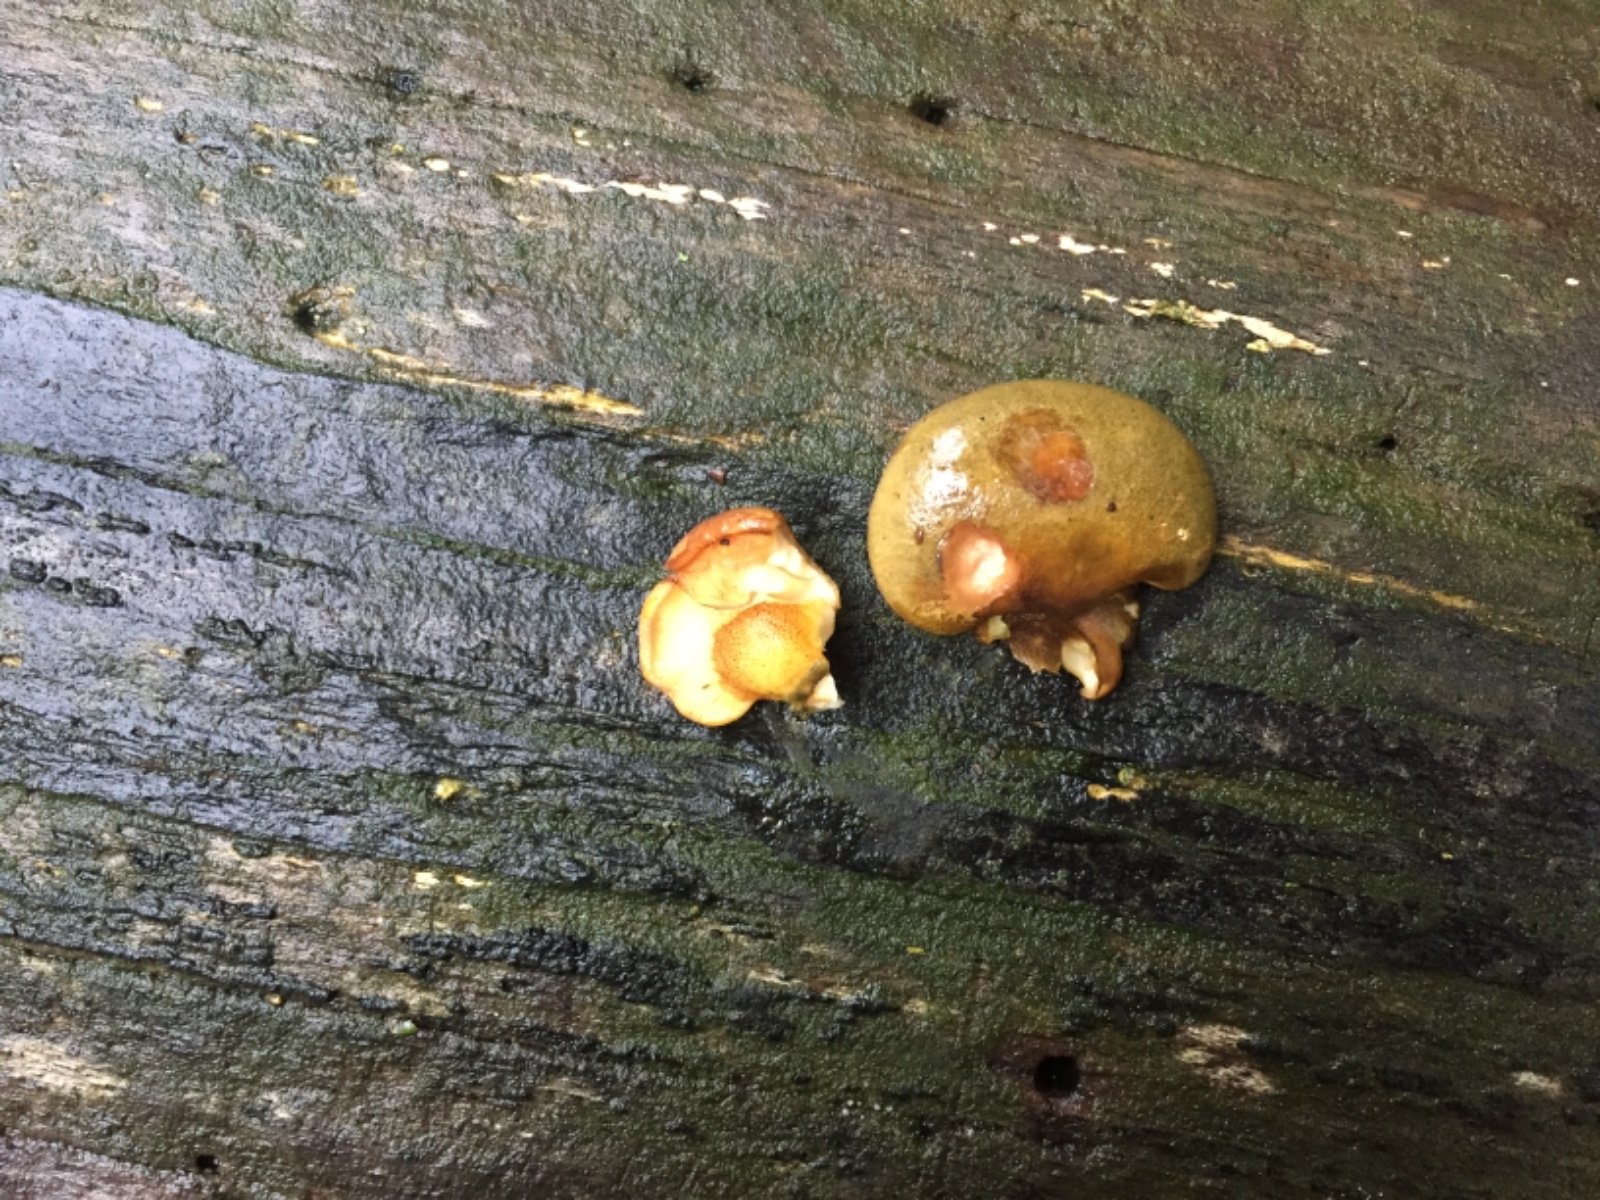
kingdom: Fungi
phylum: Basidiomycota
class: Agaricomycetes
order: Agaricales
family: Sarcomyxaceae
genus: Sarcomyxa
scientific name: Sarcomyxa serotina
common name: gummihat
